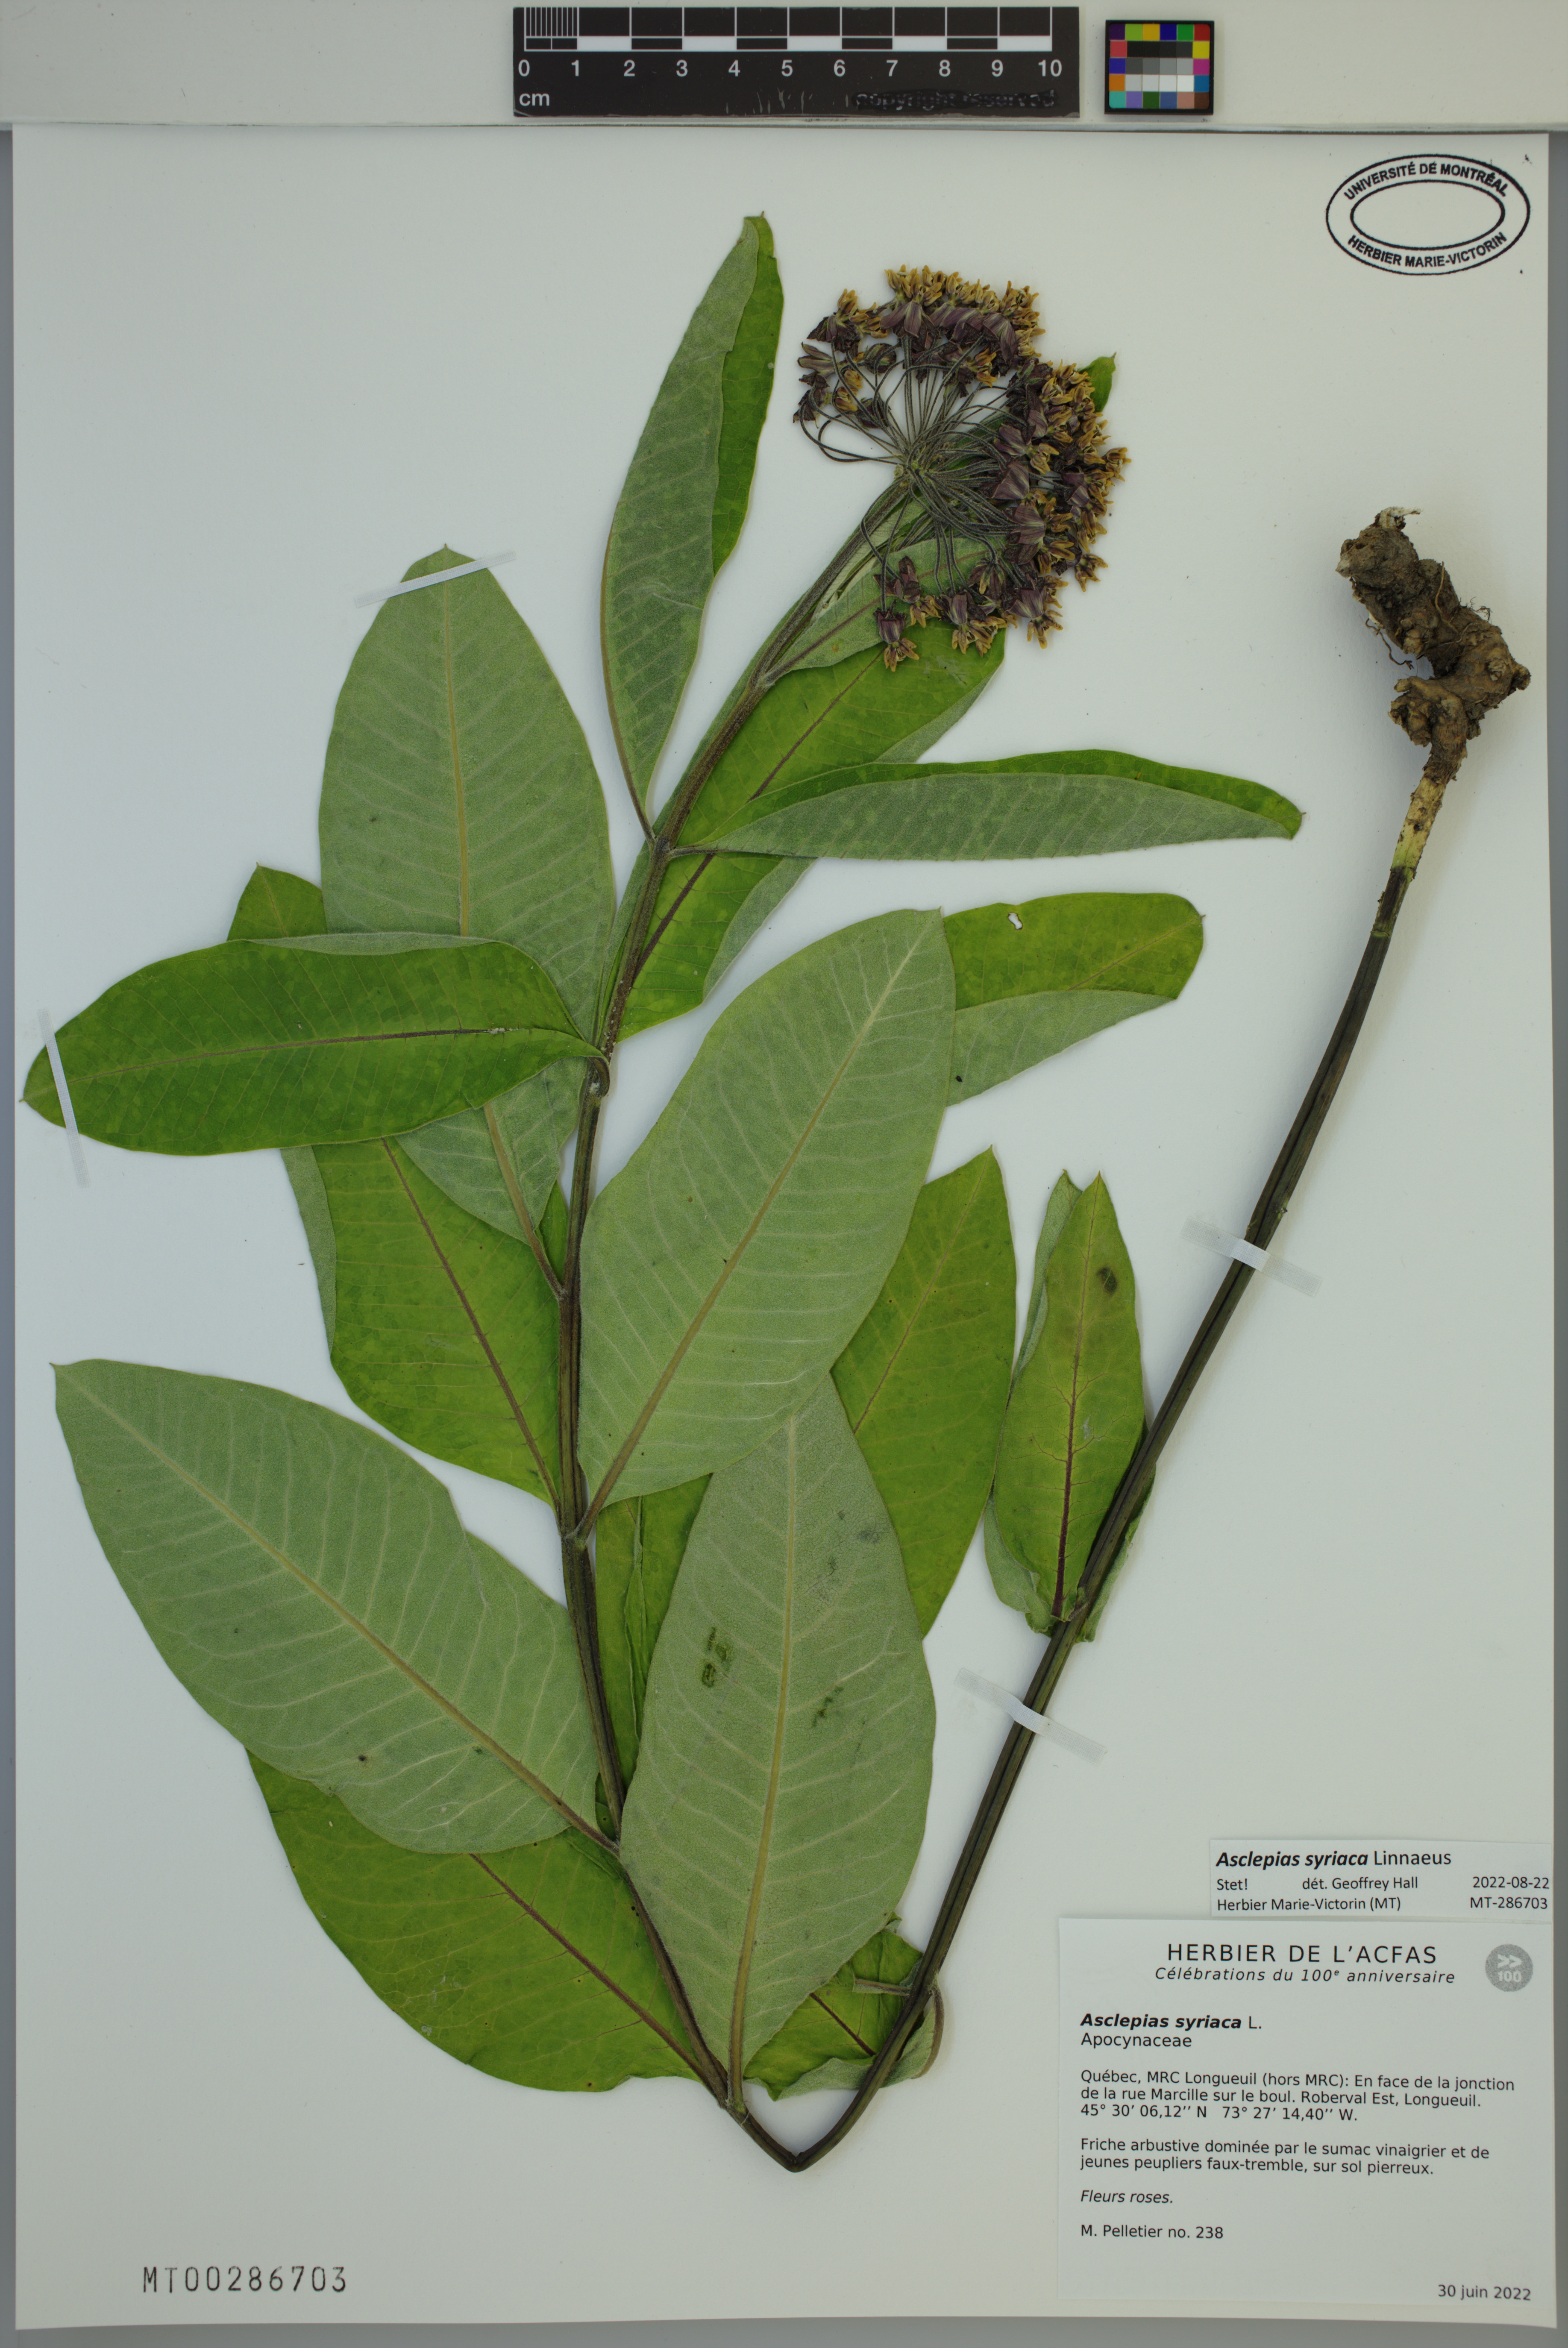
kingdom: Plantae
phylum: Tracheophyta
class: Magnoliopsida
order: Gentianales
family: Apocynaceae
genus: Asclepias
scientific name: Asclepias syriaca
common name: Common milkweed
